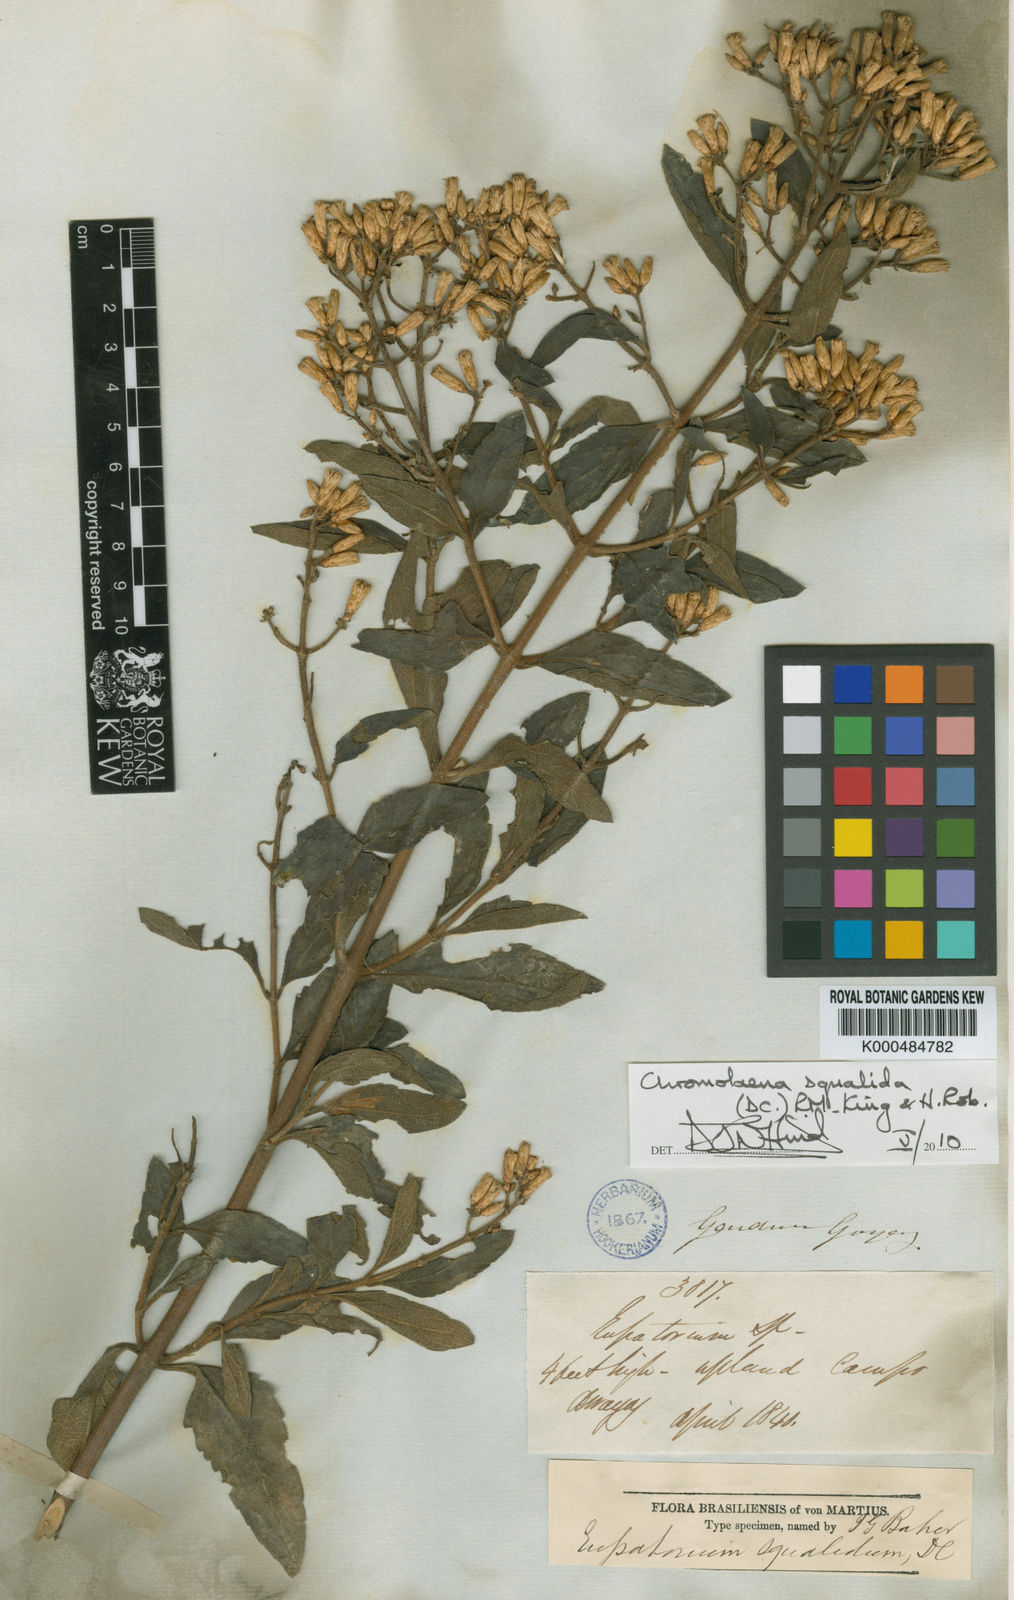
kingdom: Plantae
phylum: Tracheophyta
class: Magnoliopsida
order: Asterales
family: Asteraceae
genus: Chromolaena
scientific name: Chromolaena squalida
